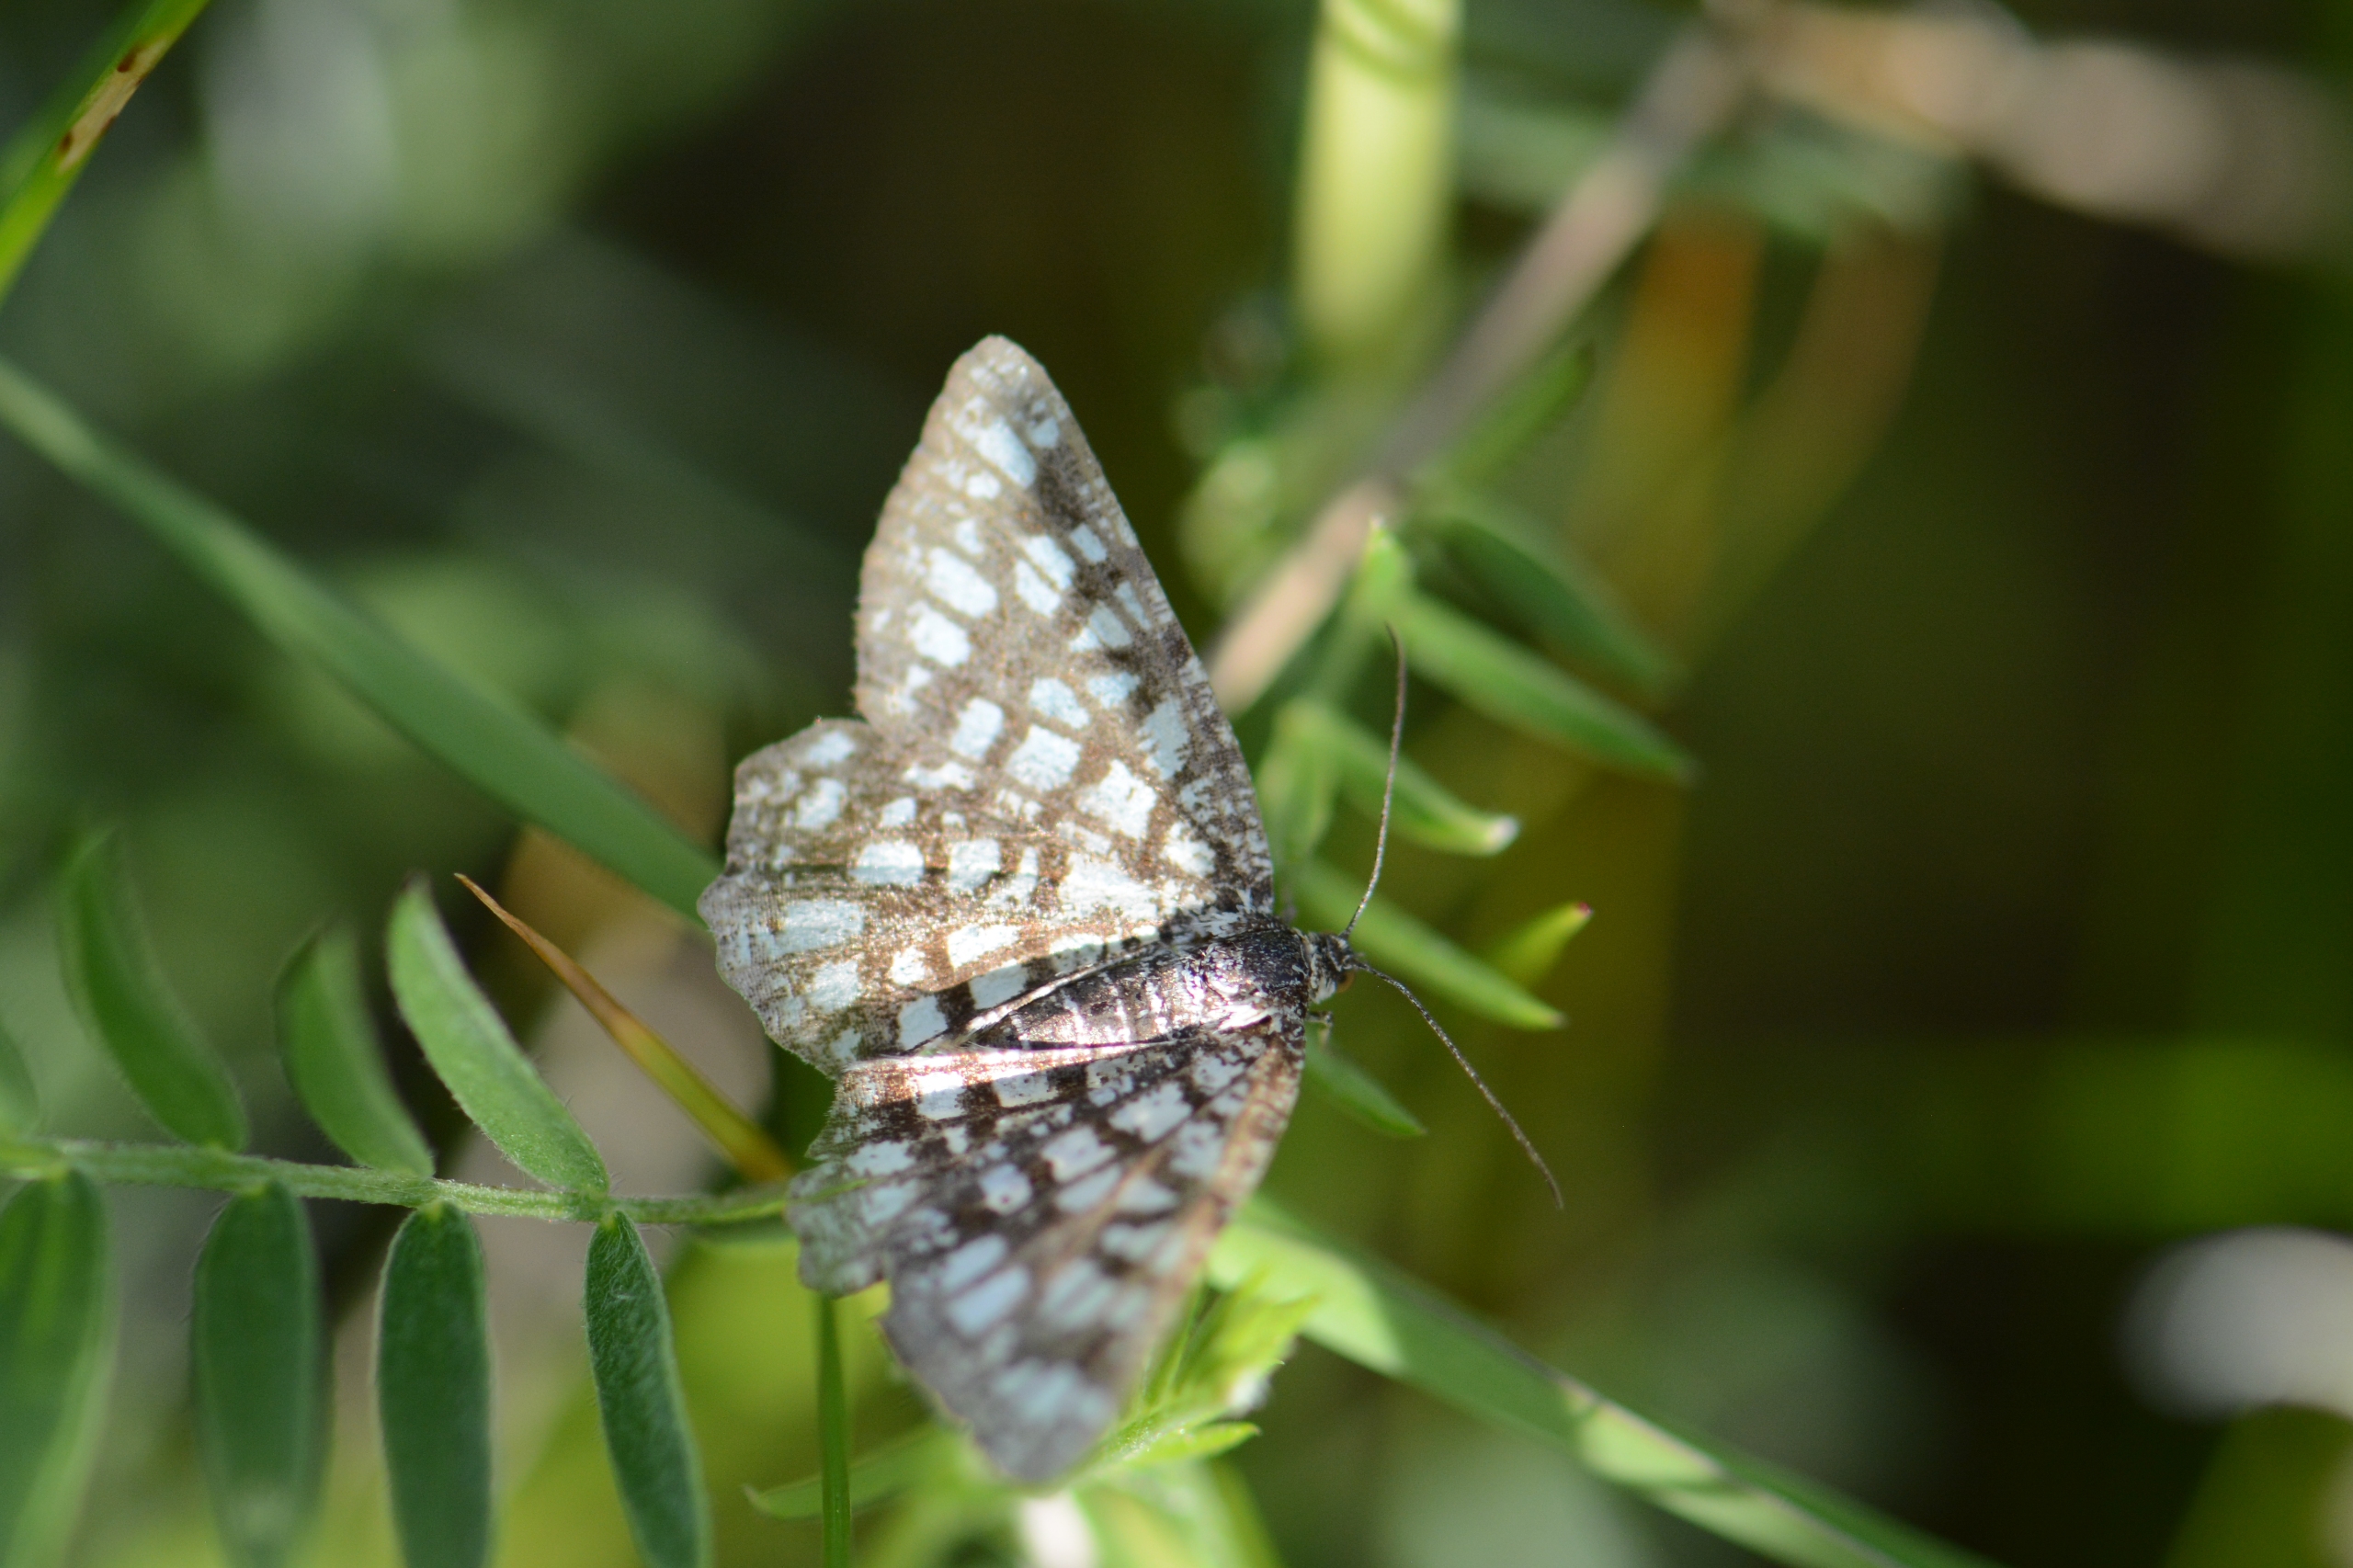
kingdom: Animalia
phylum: Arthropoda
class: Insecta
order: Lepidoptera
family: Geometridae
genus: Chiasmia
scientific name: Chiasmia clathrata
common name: Kløvermåler
